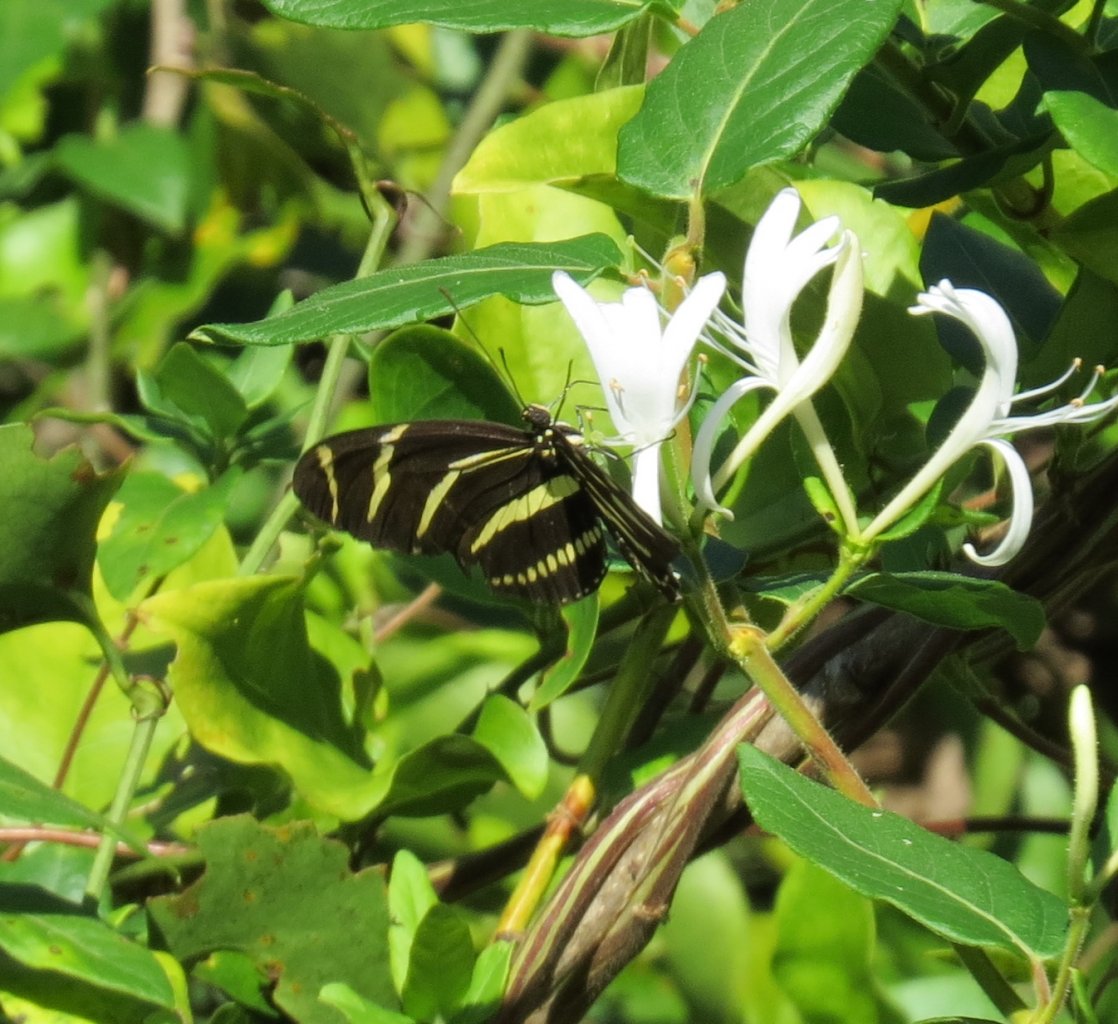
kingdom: Animalia
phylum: Arthropoda
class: Insecta
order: Lepidoptera
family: Nymphalidae
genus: Heliconius
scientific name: Heliconius charithonia
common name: Zebra Longwing
